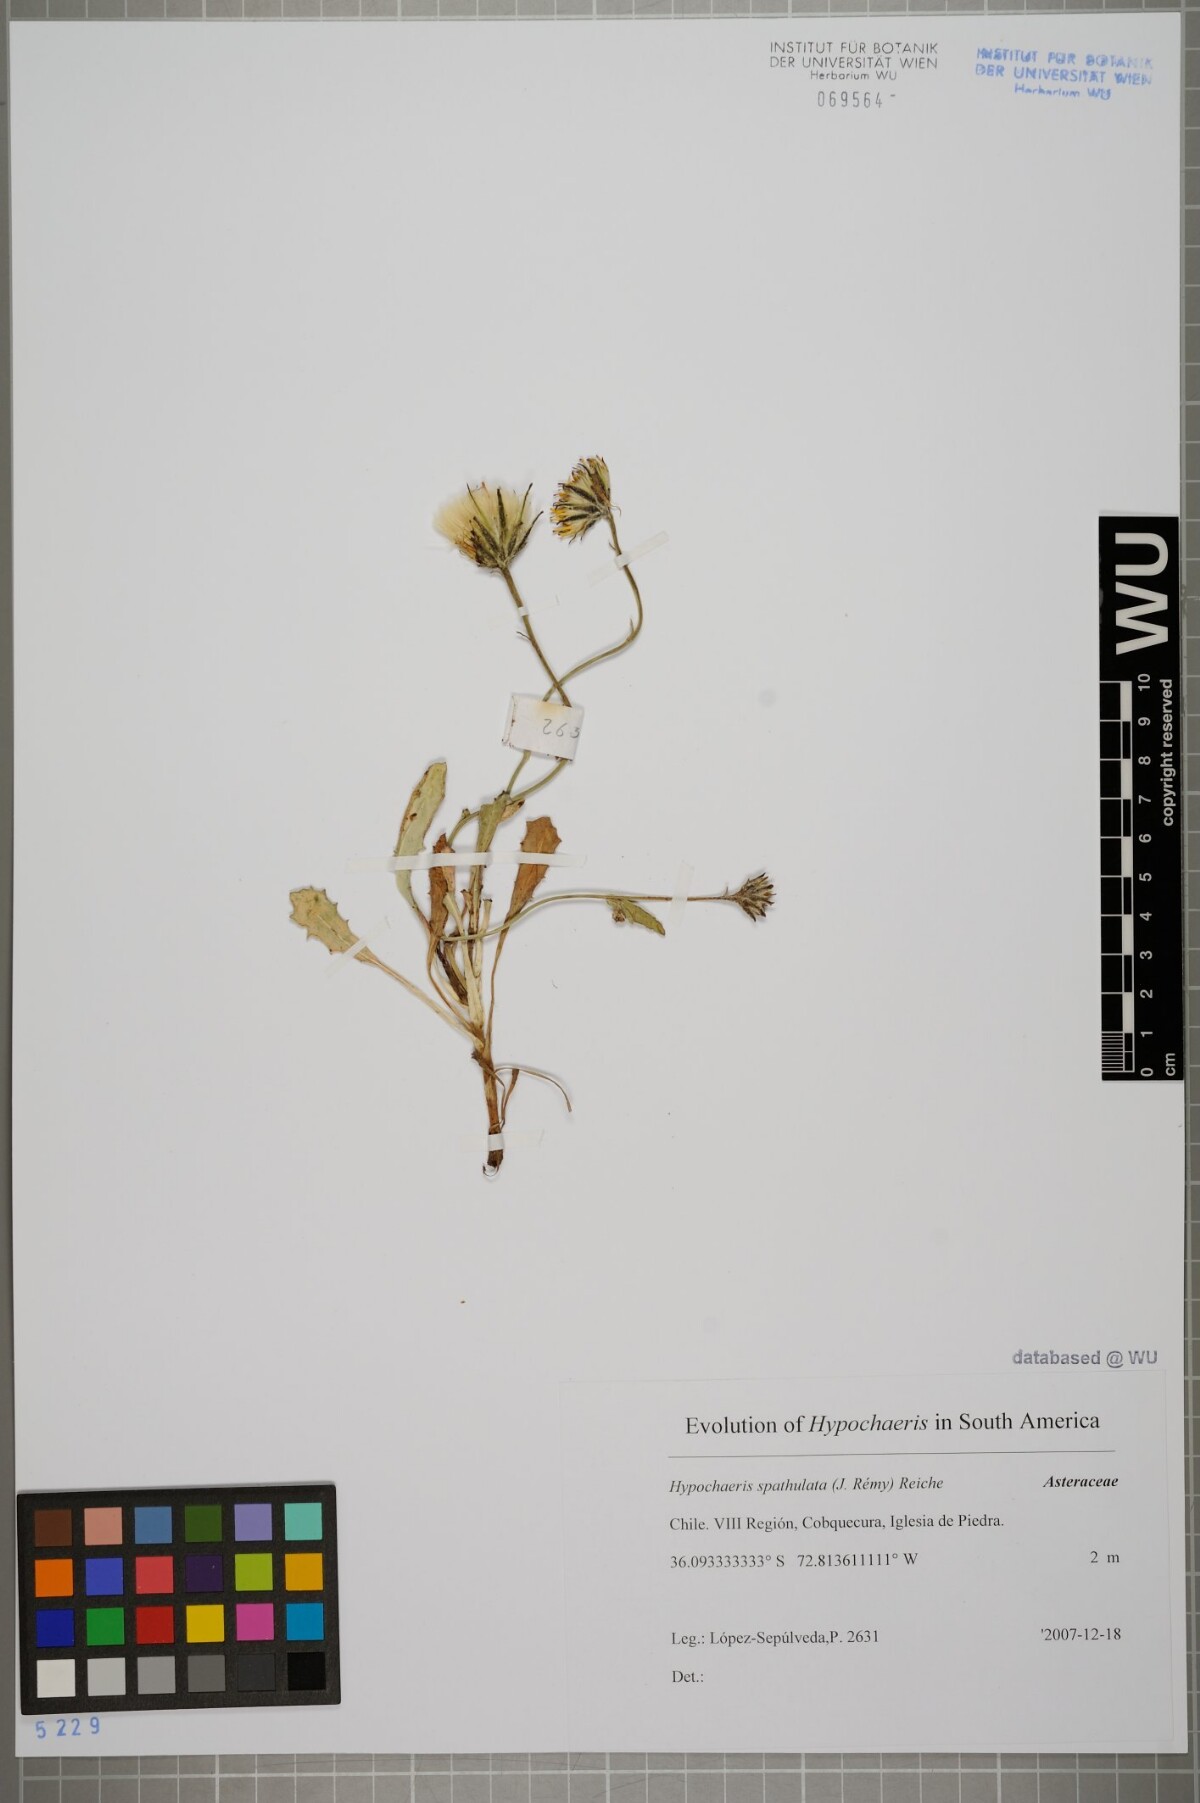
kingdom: Plantae
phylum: Tracheophyta
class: Magnoliopsida
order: Asterales
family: Asteraceae
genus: Hypochaeris
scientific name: Hypochaeris spathulata
